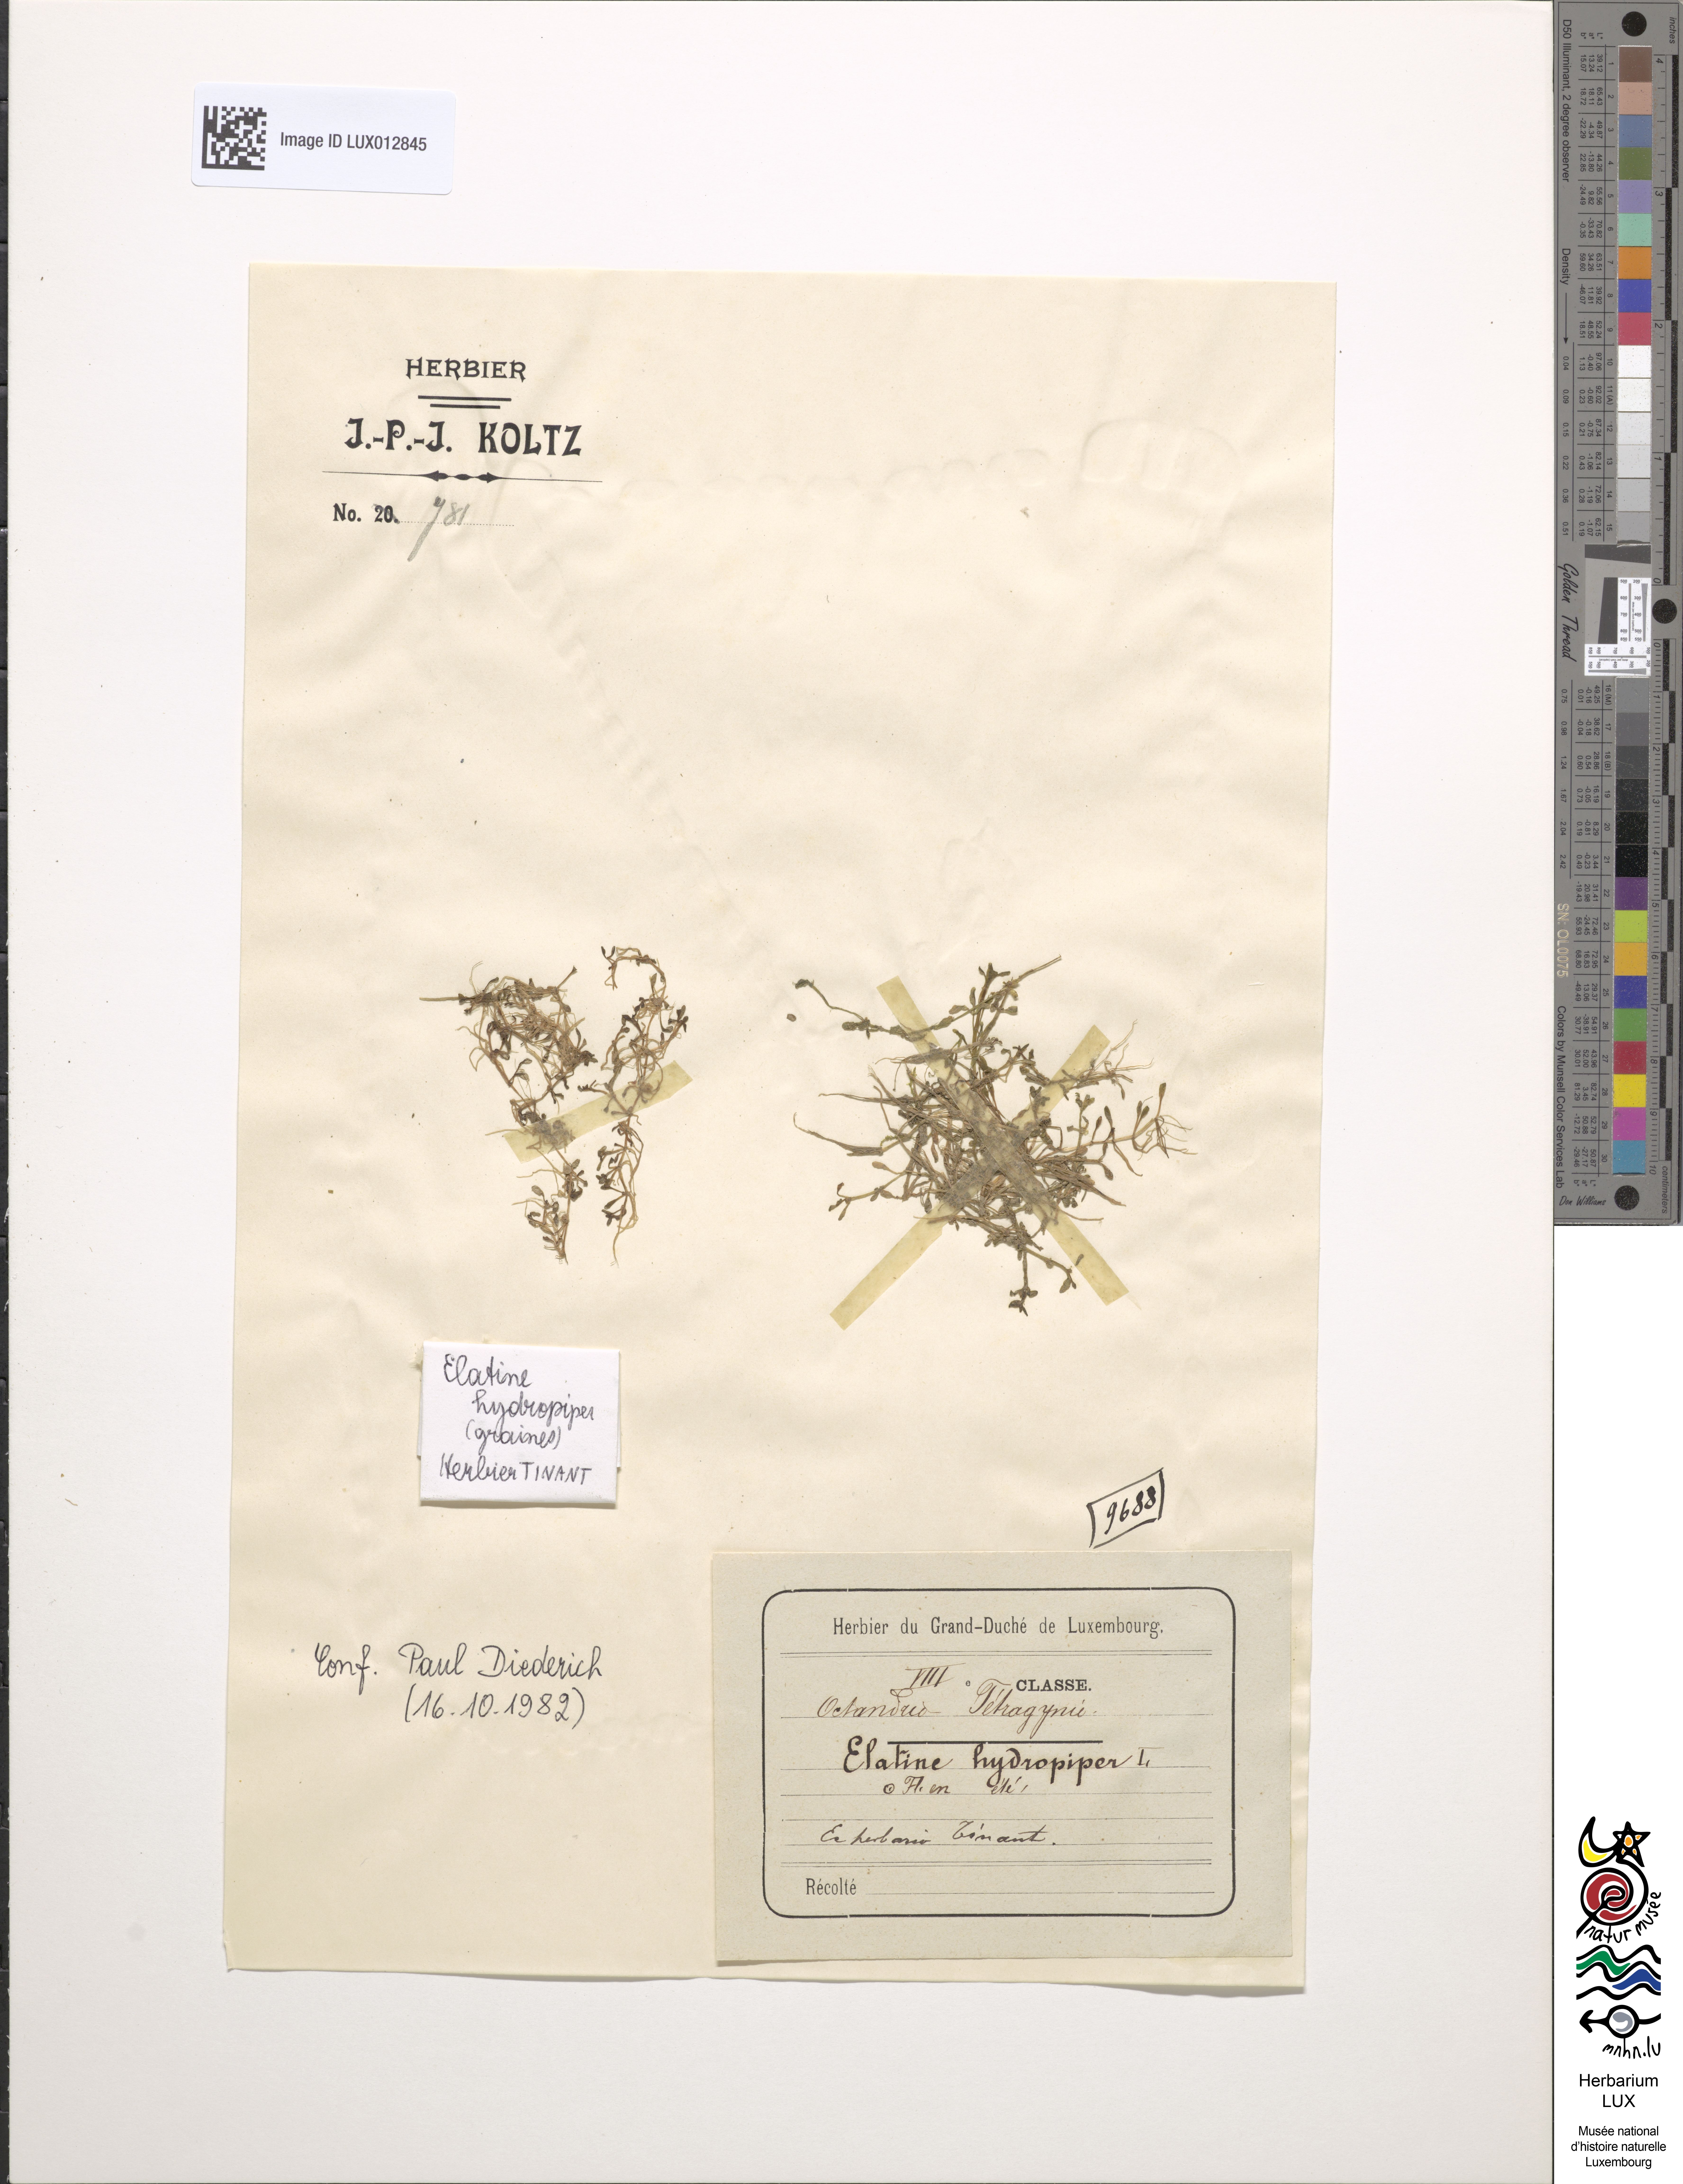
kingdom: Plantae
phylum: Tracheophyta
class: Magnoliopsida
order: Malpighiales
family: Elatinaceae
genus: Elatine
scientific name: Elatine hydropiper
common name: Eight-stamened waterwort
